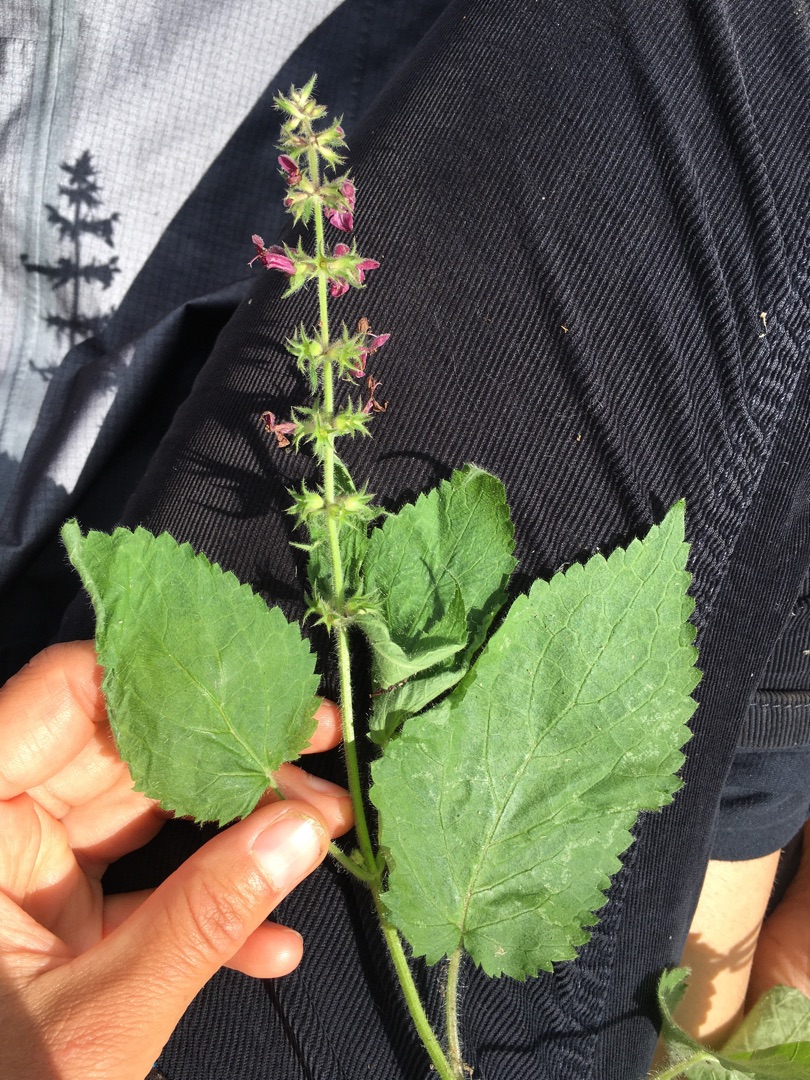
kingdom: Plantae
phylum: Tracheophyta
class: Magnoliopsida
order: Lamiales
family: Lamiaceae
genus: Stachys
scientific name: Stachys sylvatica
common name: Skov-galtetand
